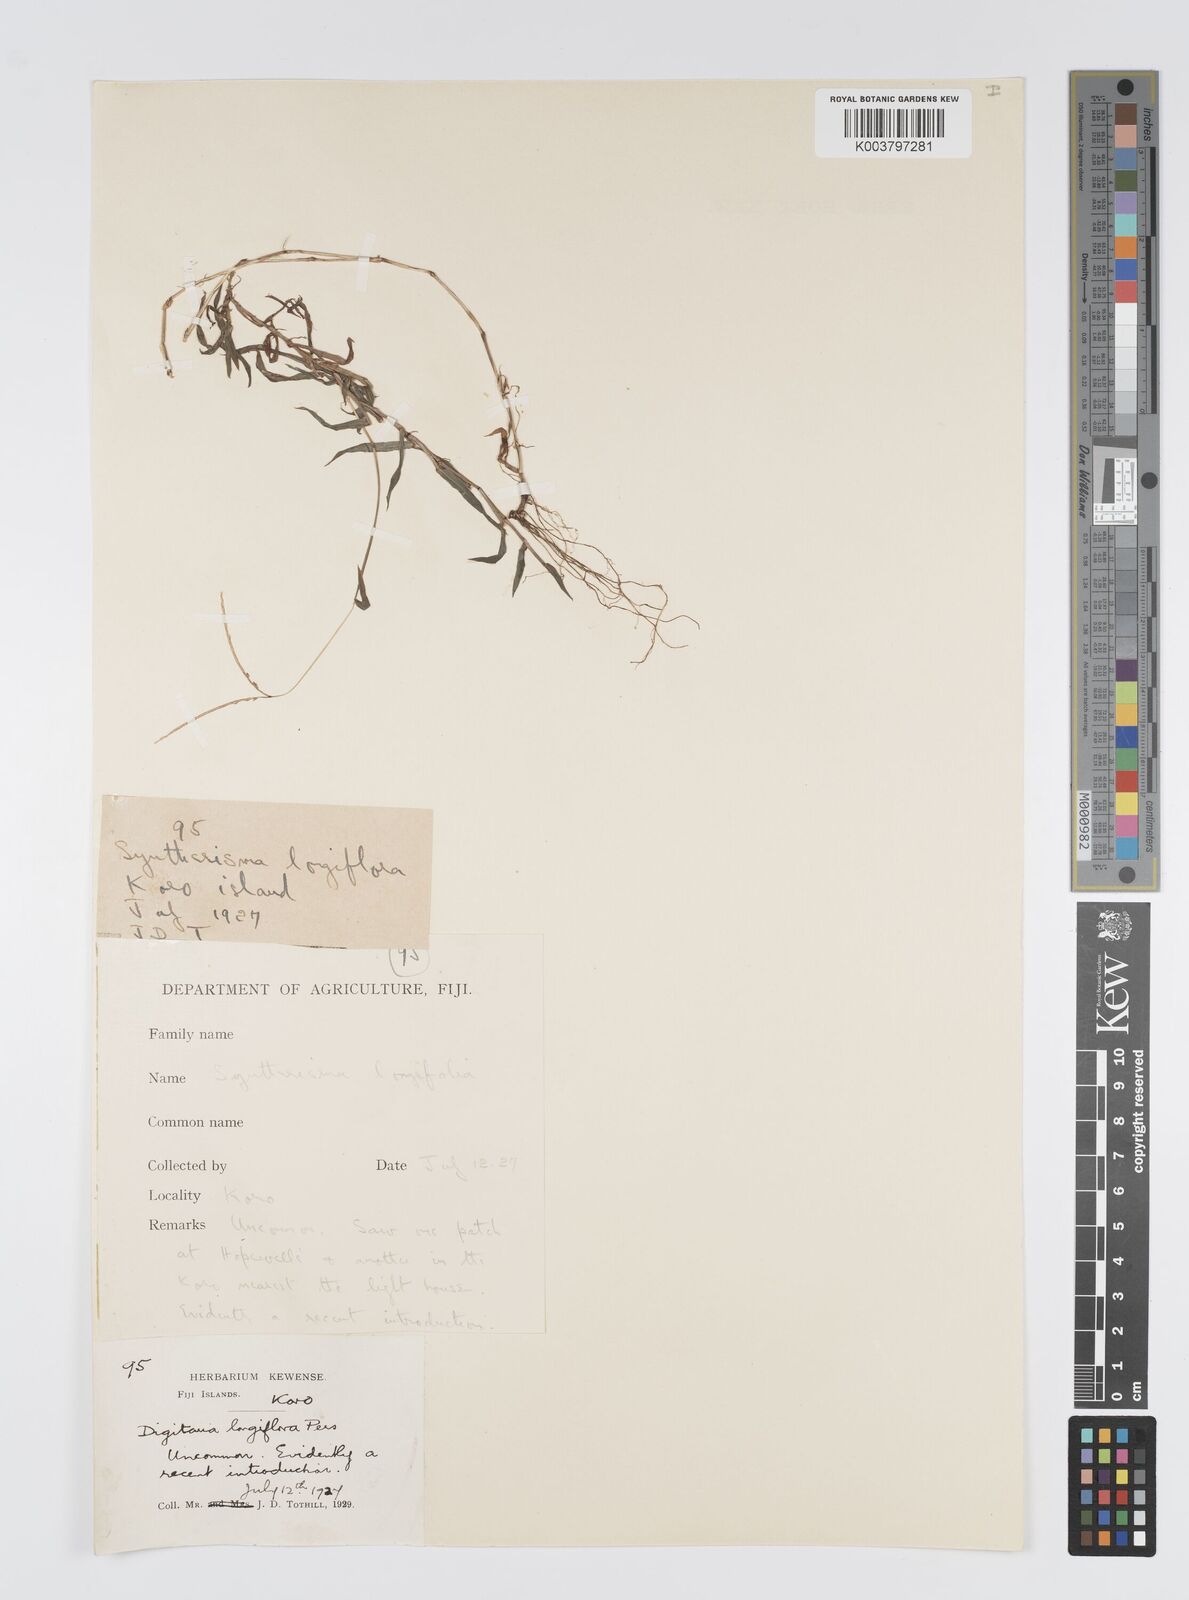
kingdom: Plantae
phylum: Tracheophyta
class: Liliopsida
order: Poales
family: Poaceae
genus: Digitaria
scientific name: Digitaria fuscescens
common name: Yellow crabgrass
